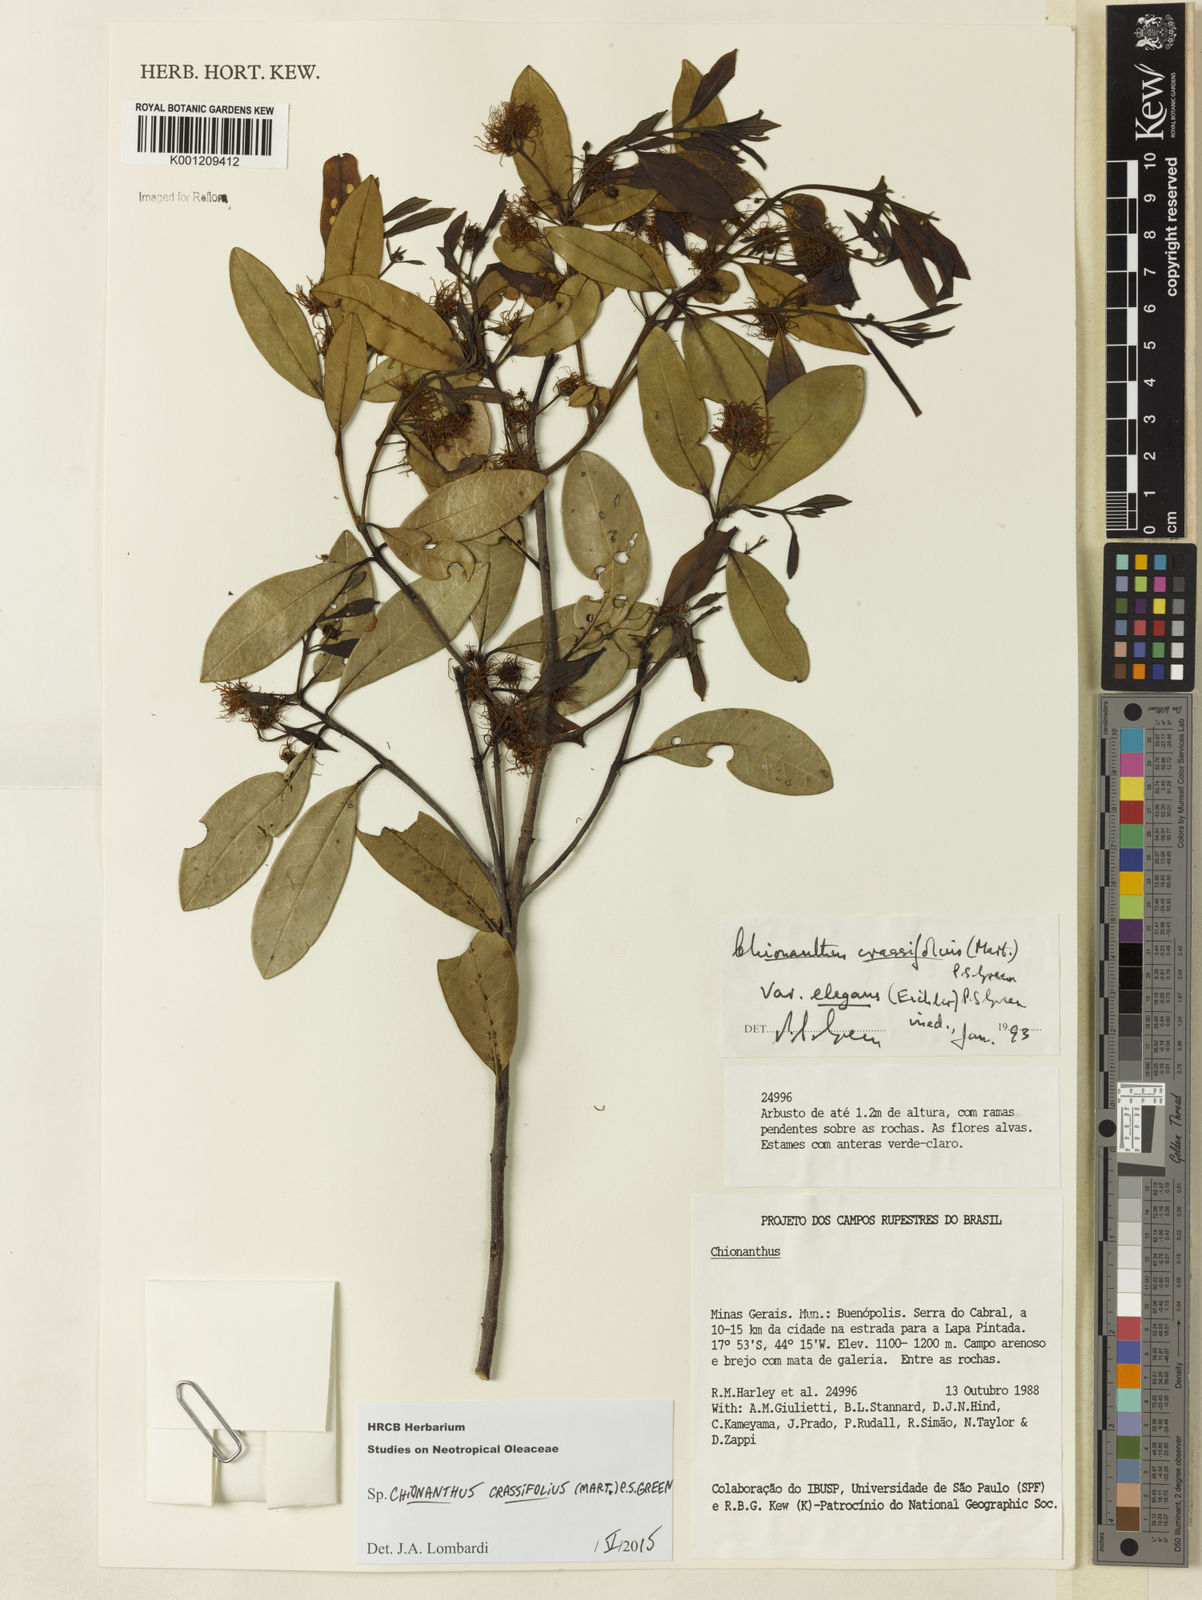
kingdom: Plantae
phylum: Tracheophyta
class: Magnoliopsida
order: Lamiales
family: Oleaceae
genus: Chionanthus
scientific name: Chionanthus crassifolius
